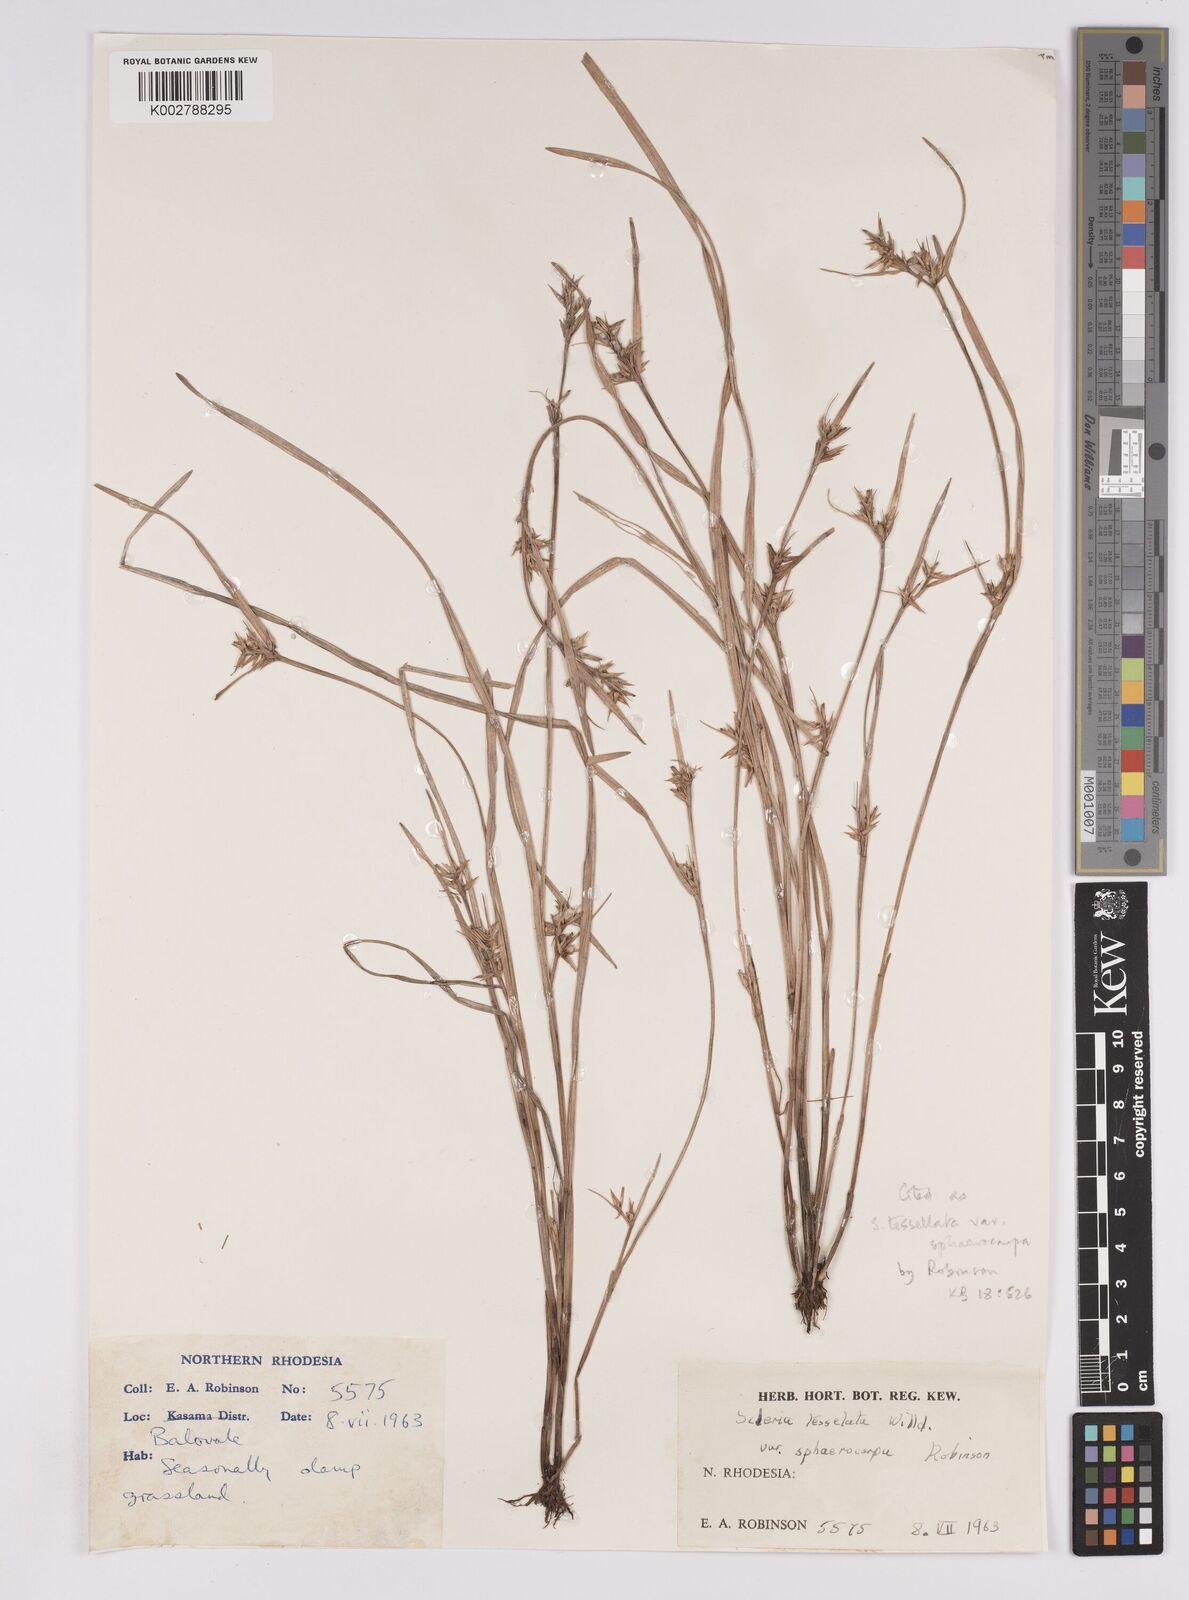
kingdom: Plantae
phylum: Tracheophyta
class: Liliopsida
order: Poales
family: Cyperaceae
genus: Scleria
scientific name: Scleria
